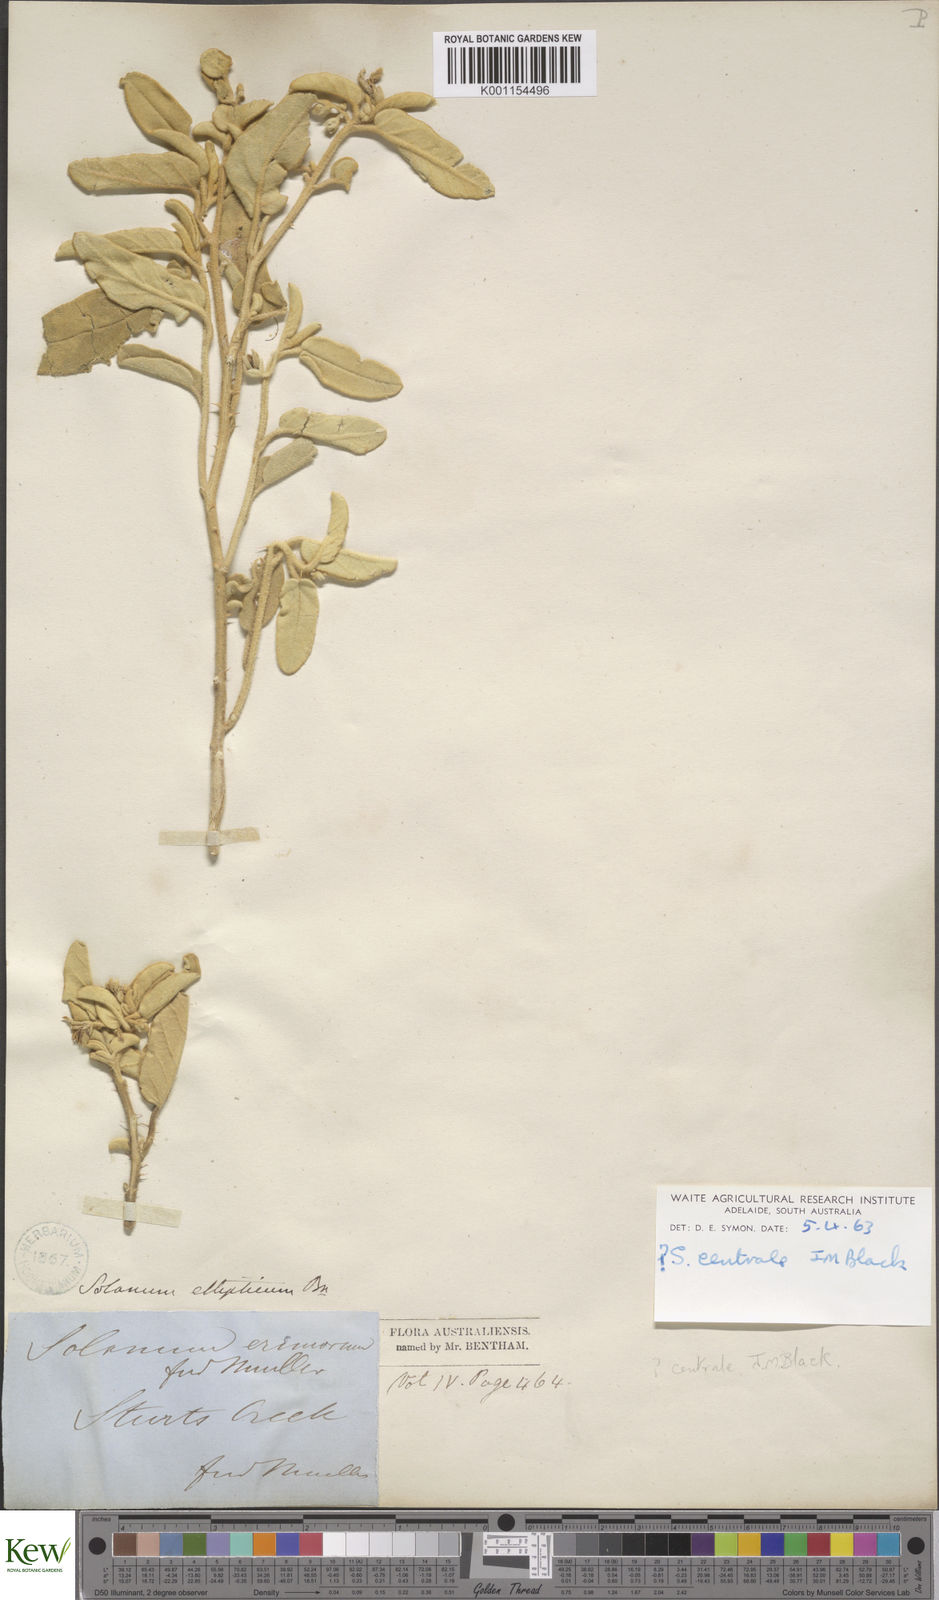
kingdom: Plantae
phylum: Tracheophyta
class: Magnoliopsida
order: Solanales
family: Solanaceae
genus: Solanum
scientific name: Solanum centrale
